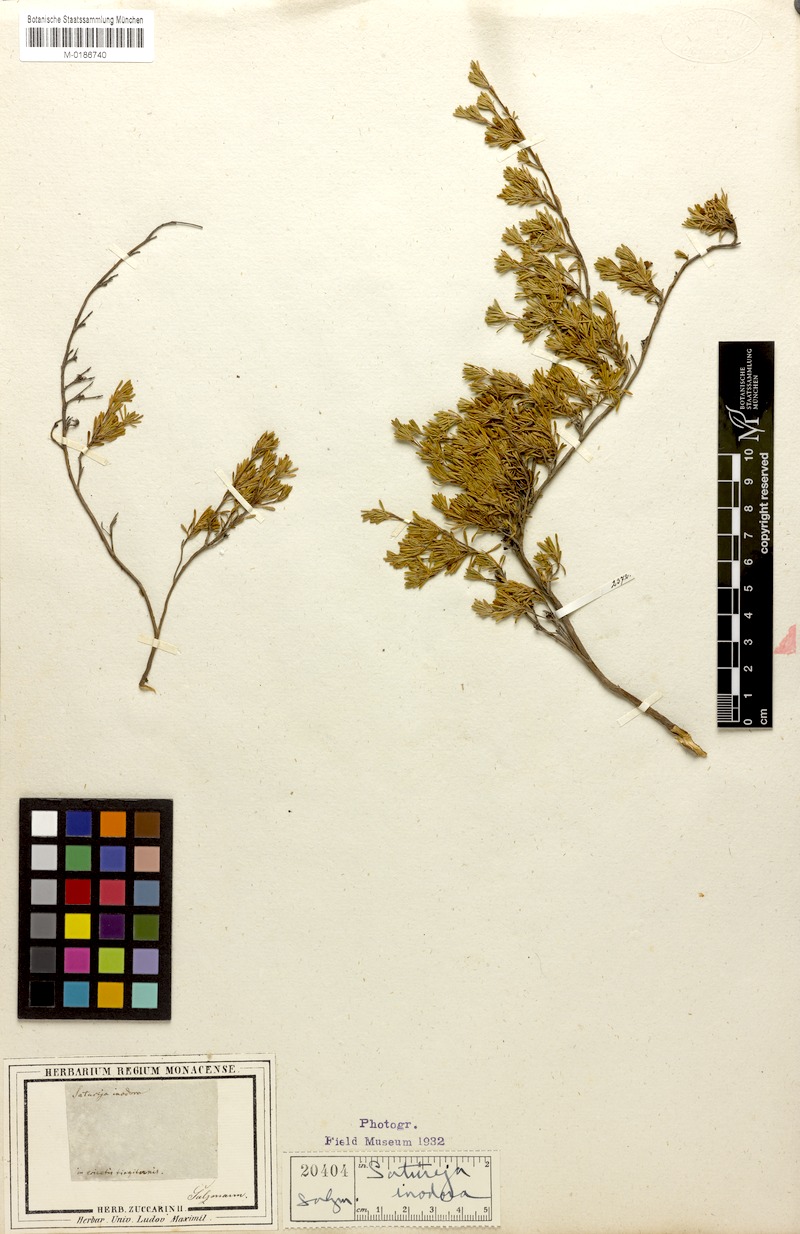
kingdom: Plantae
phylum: Tracheophyta
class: Magnoliopsida
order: Lamiales
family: Lamiaceae
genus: Satureja
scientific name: Satureja salzmannii
